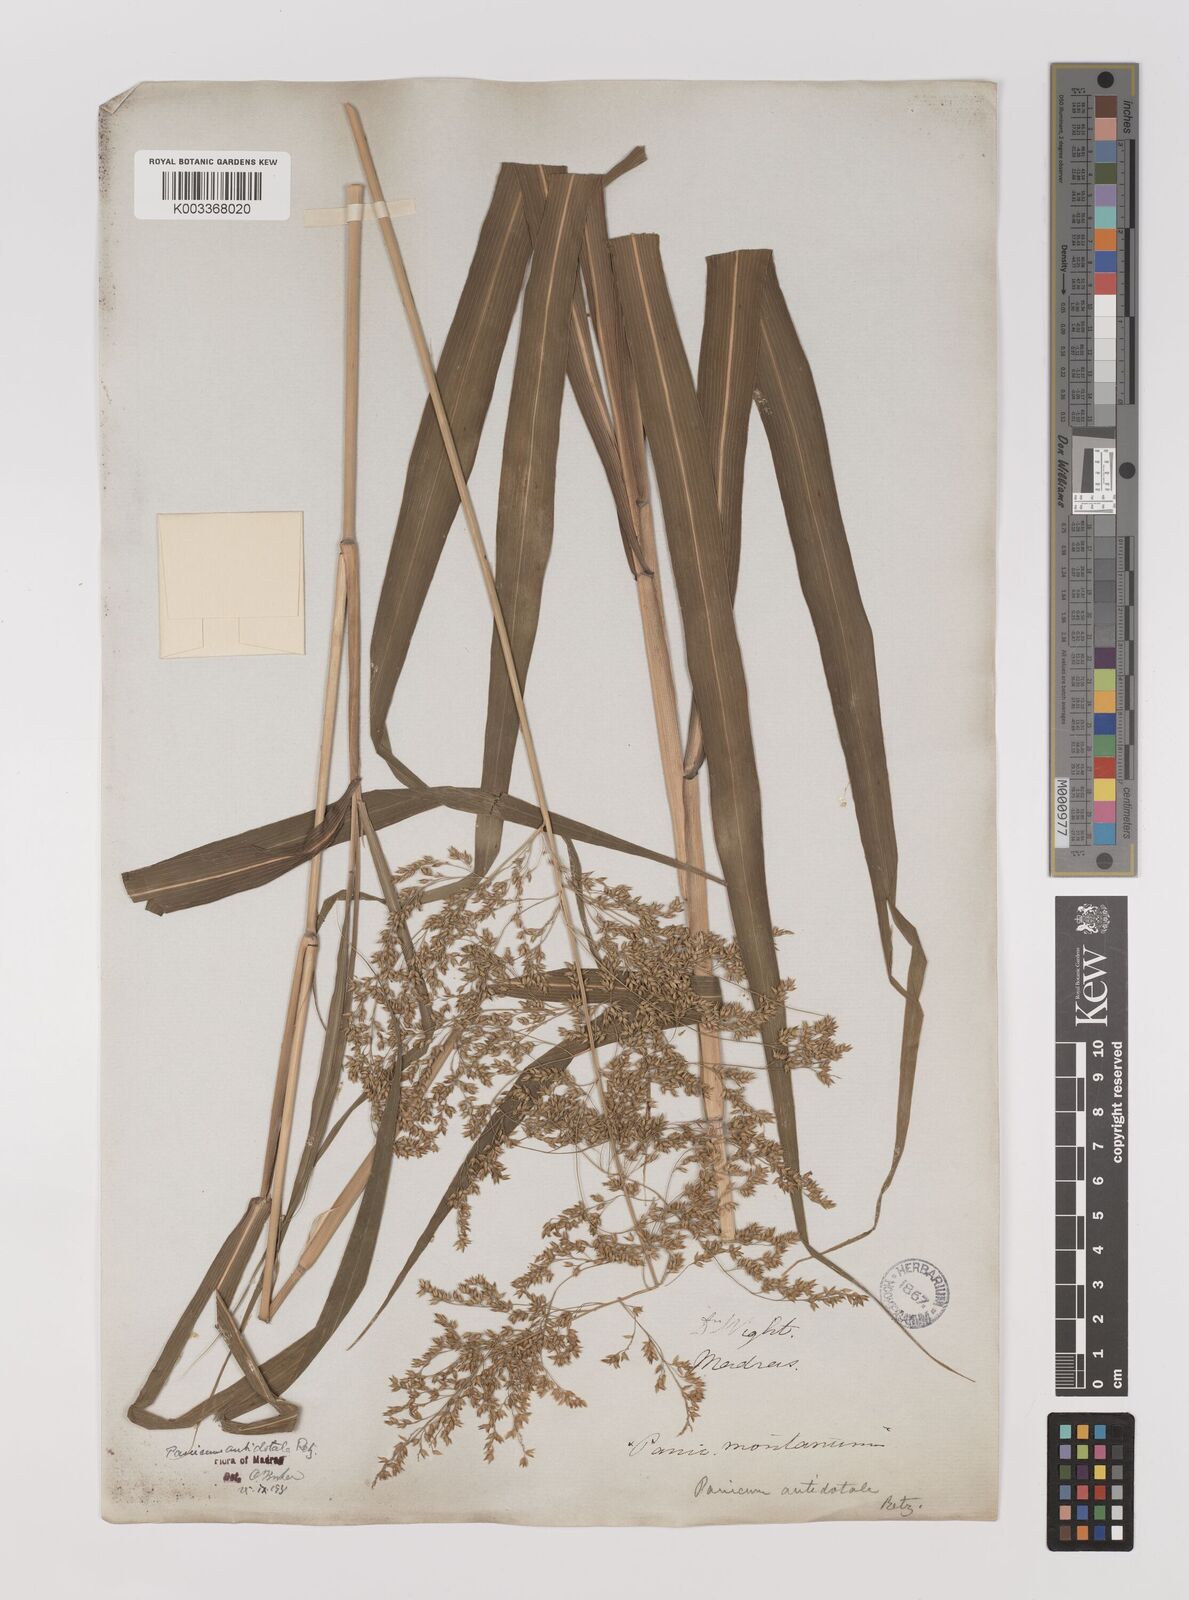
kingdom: Plantae
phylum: Tracheophyta
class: Liliopsida
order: Poales
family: Poaceae
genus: Panicum
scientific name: Panicum antidotale
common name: Blue panicum
